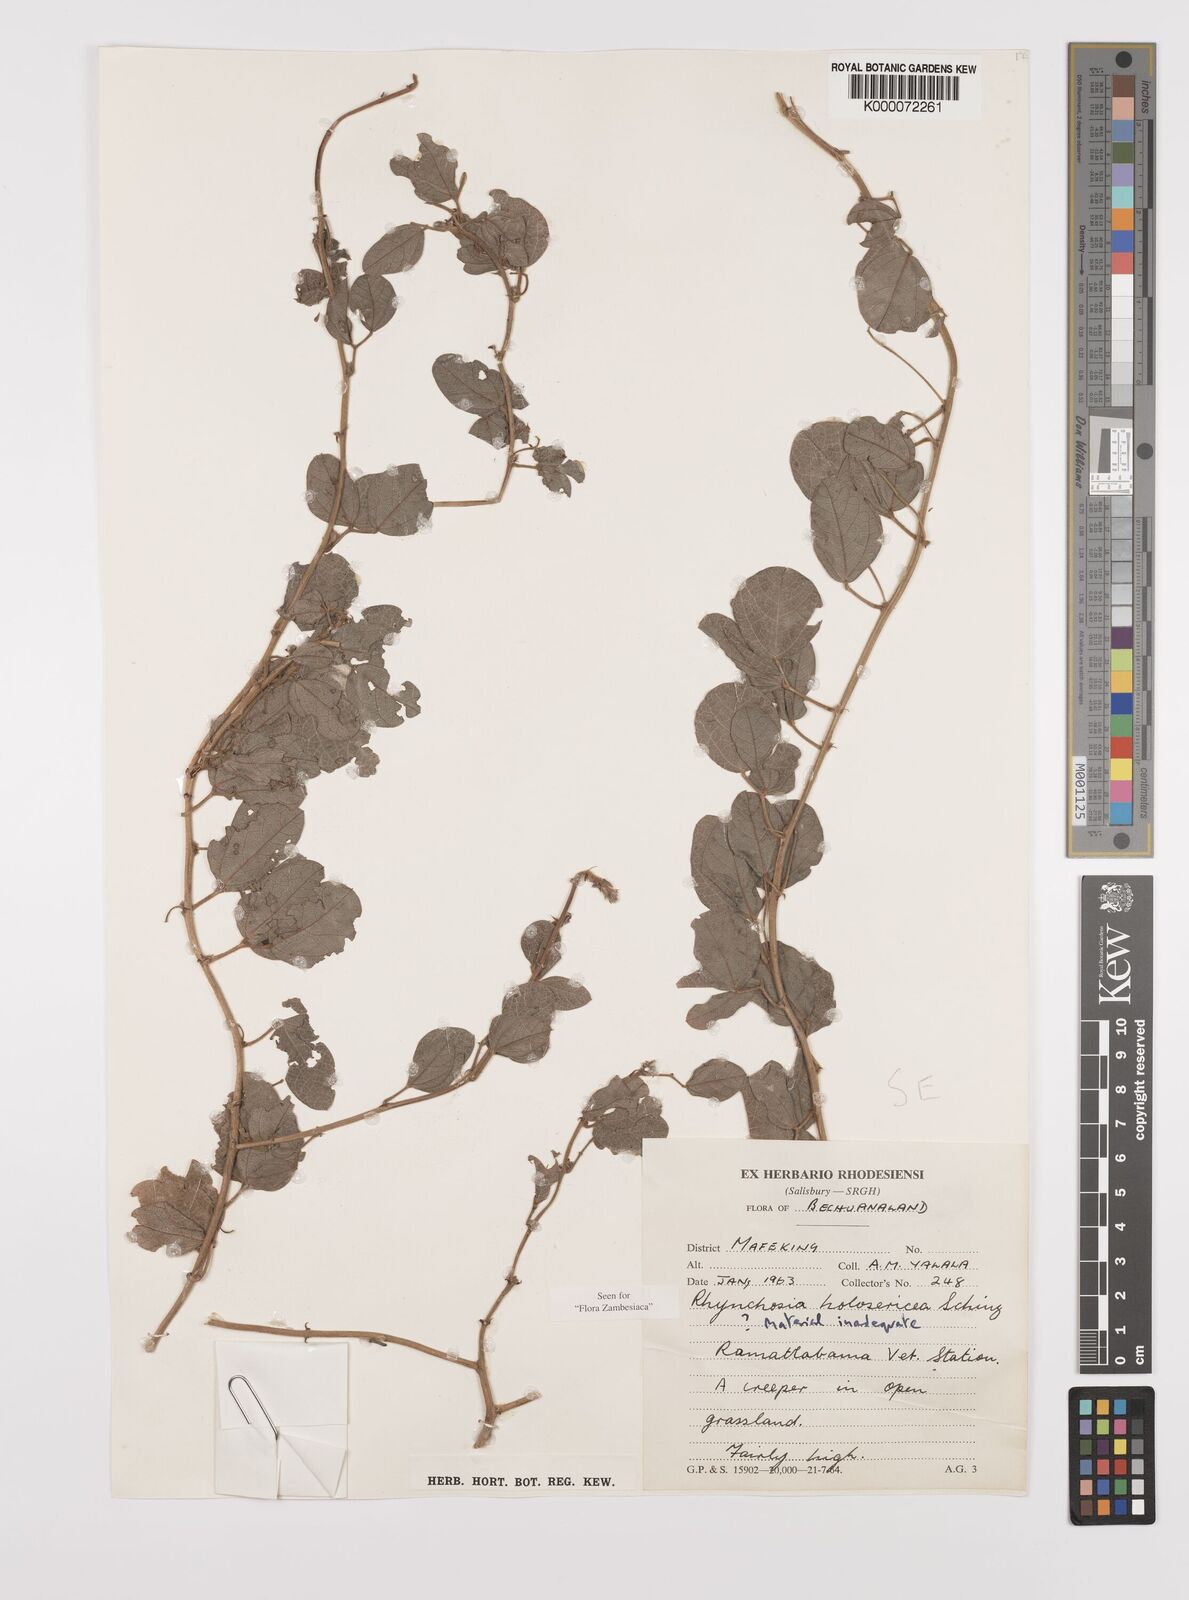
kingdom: Plantae
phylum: Tracheophyta
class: Magnoliopsida
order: Fabales
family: Fabaceae
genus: Rhynchosia
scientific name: Rhynchosia holosericea
